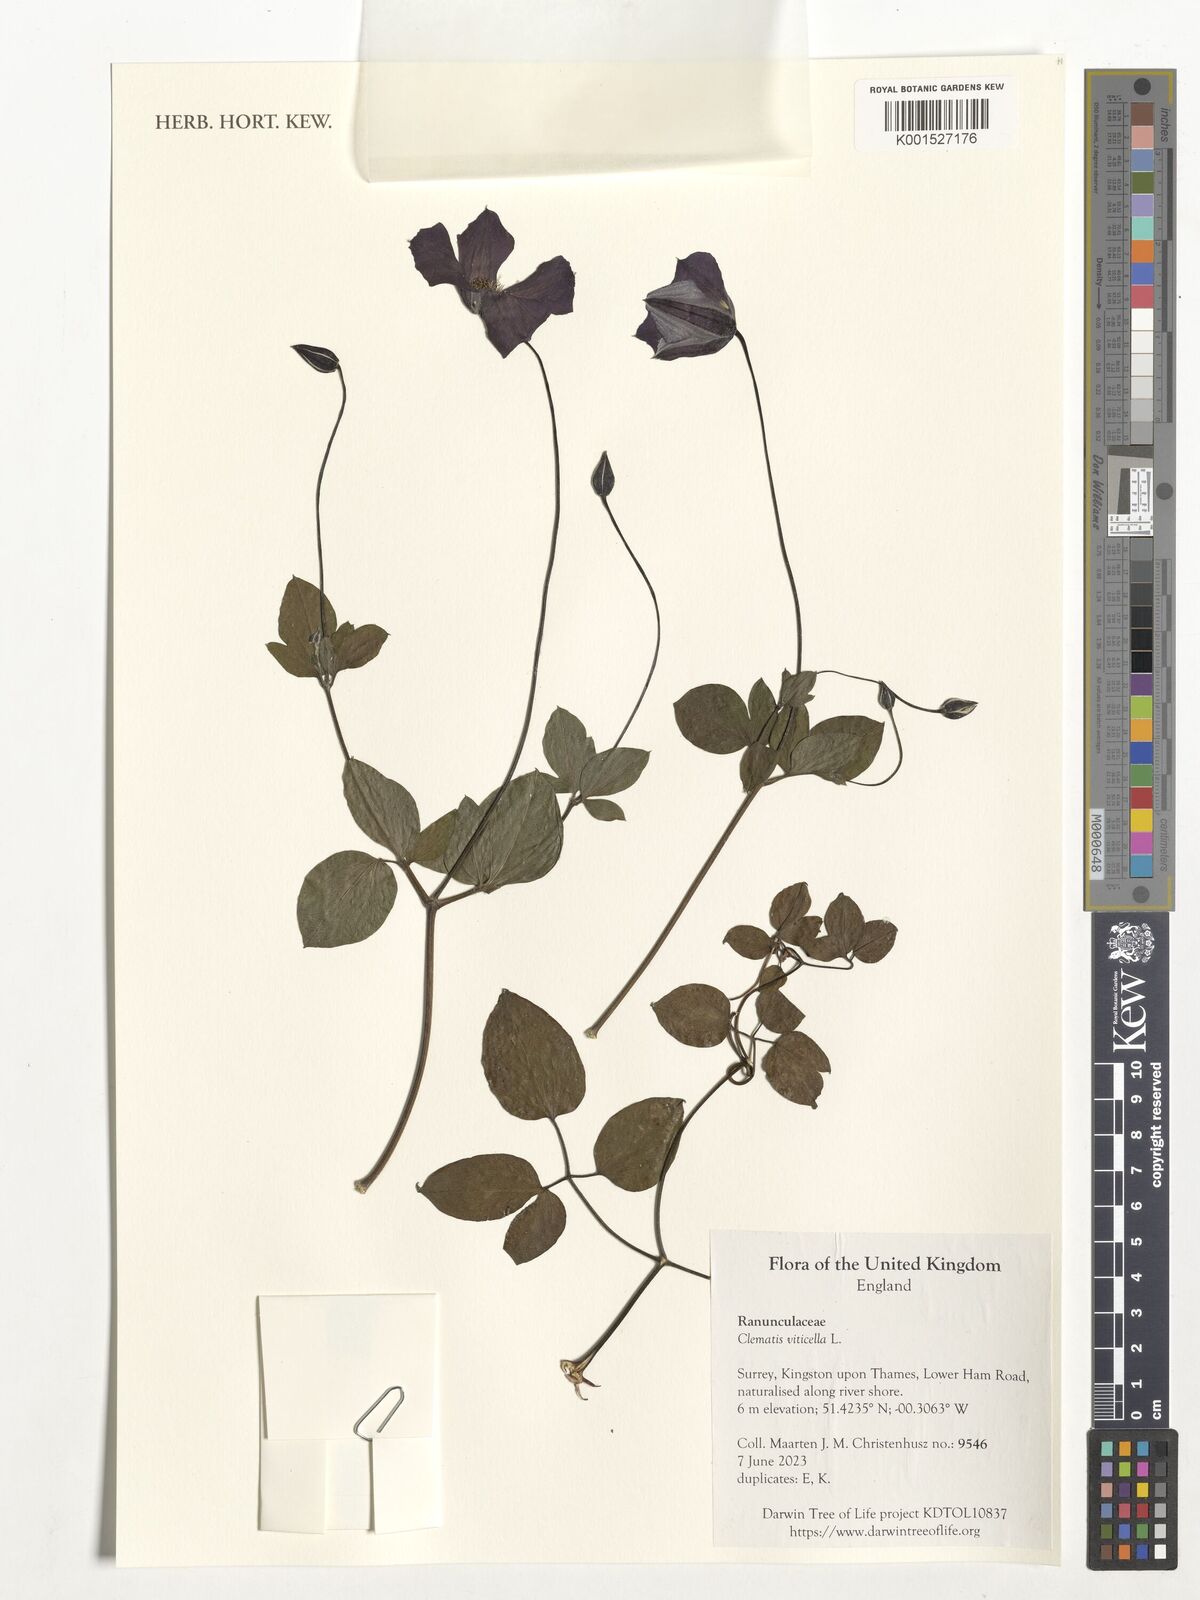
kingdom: Plantae
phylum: Tracheophyta
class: Magnoliopsida
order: Ranunculales
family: Ranunculaceae
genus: Clematis
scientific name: Clematis viticella
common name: Purple clematis
